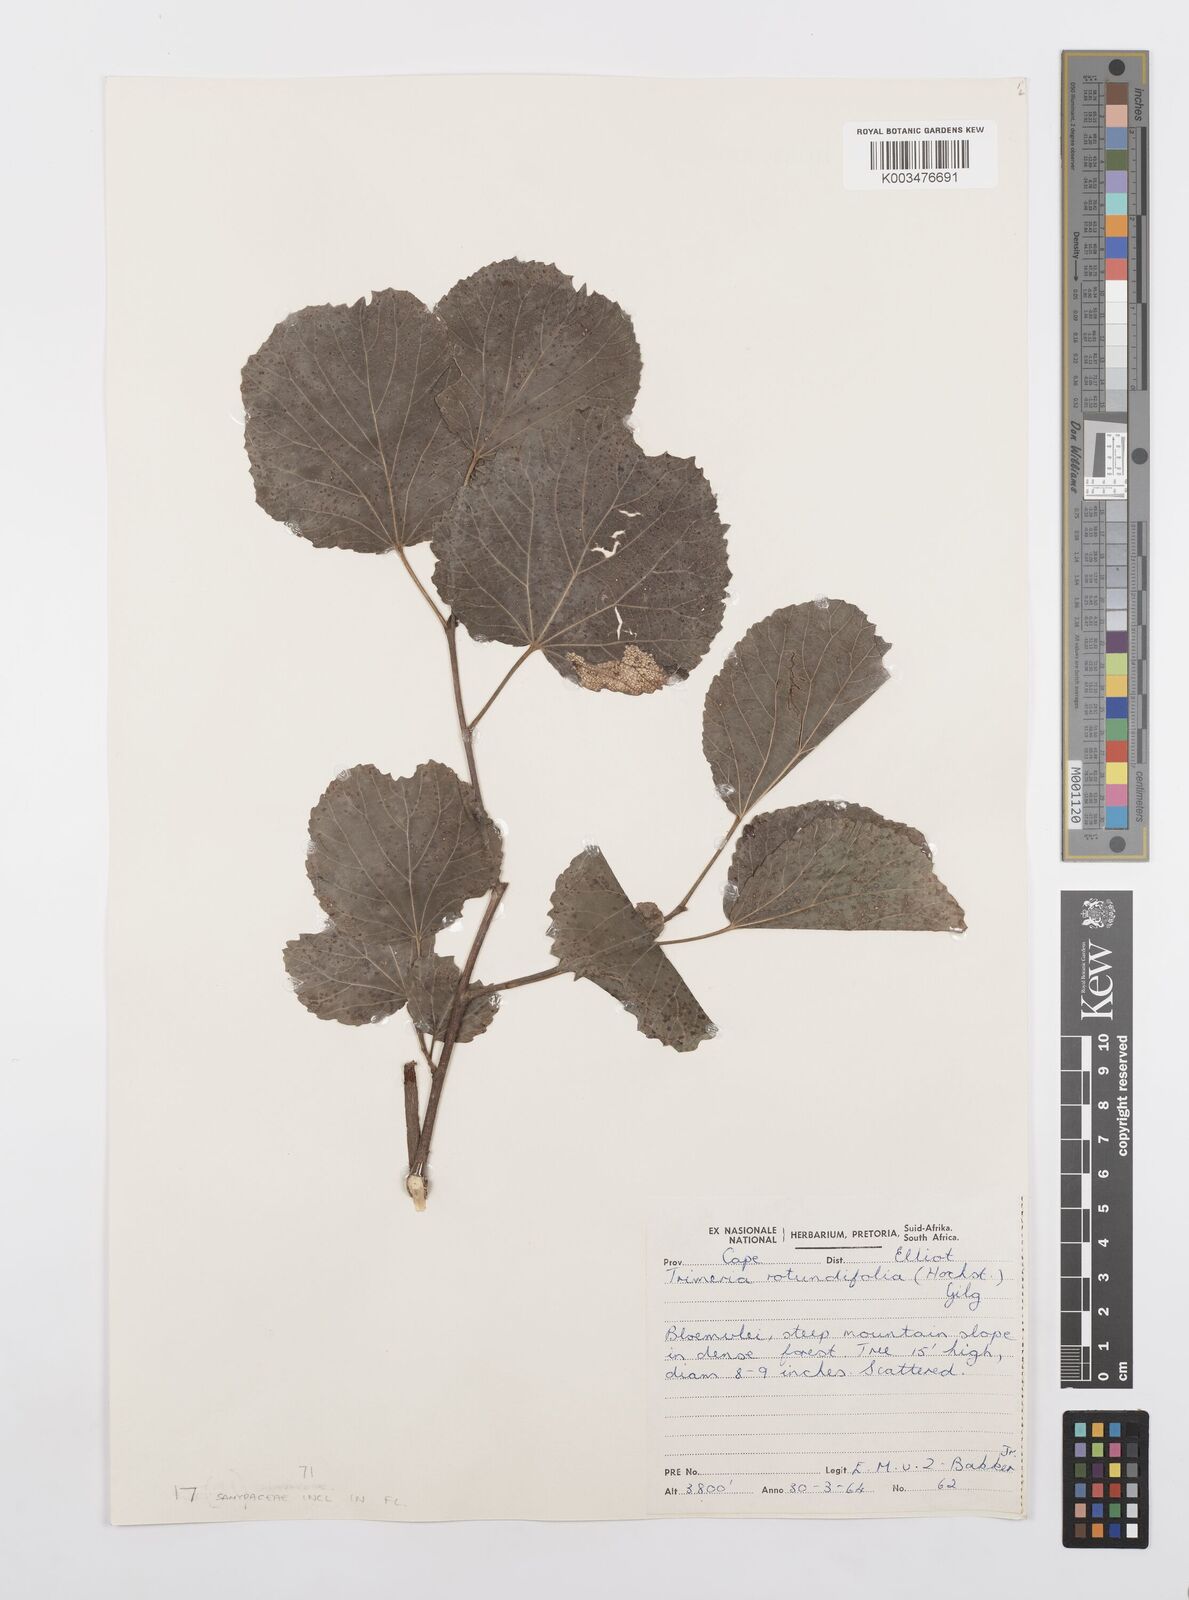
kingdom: Plantae
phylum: Tracheophyta
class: Magnoliopsida
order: Malpighiales
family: Salicaceae
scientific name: Salicaceae
